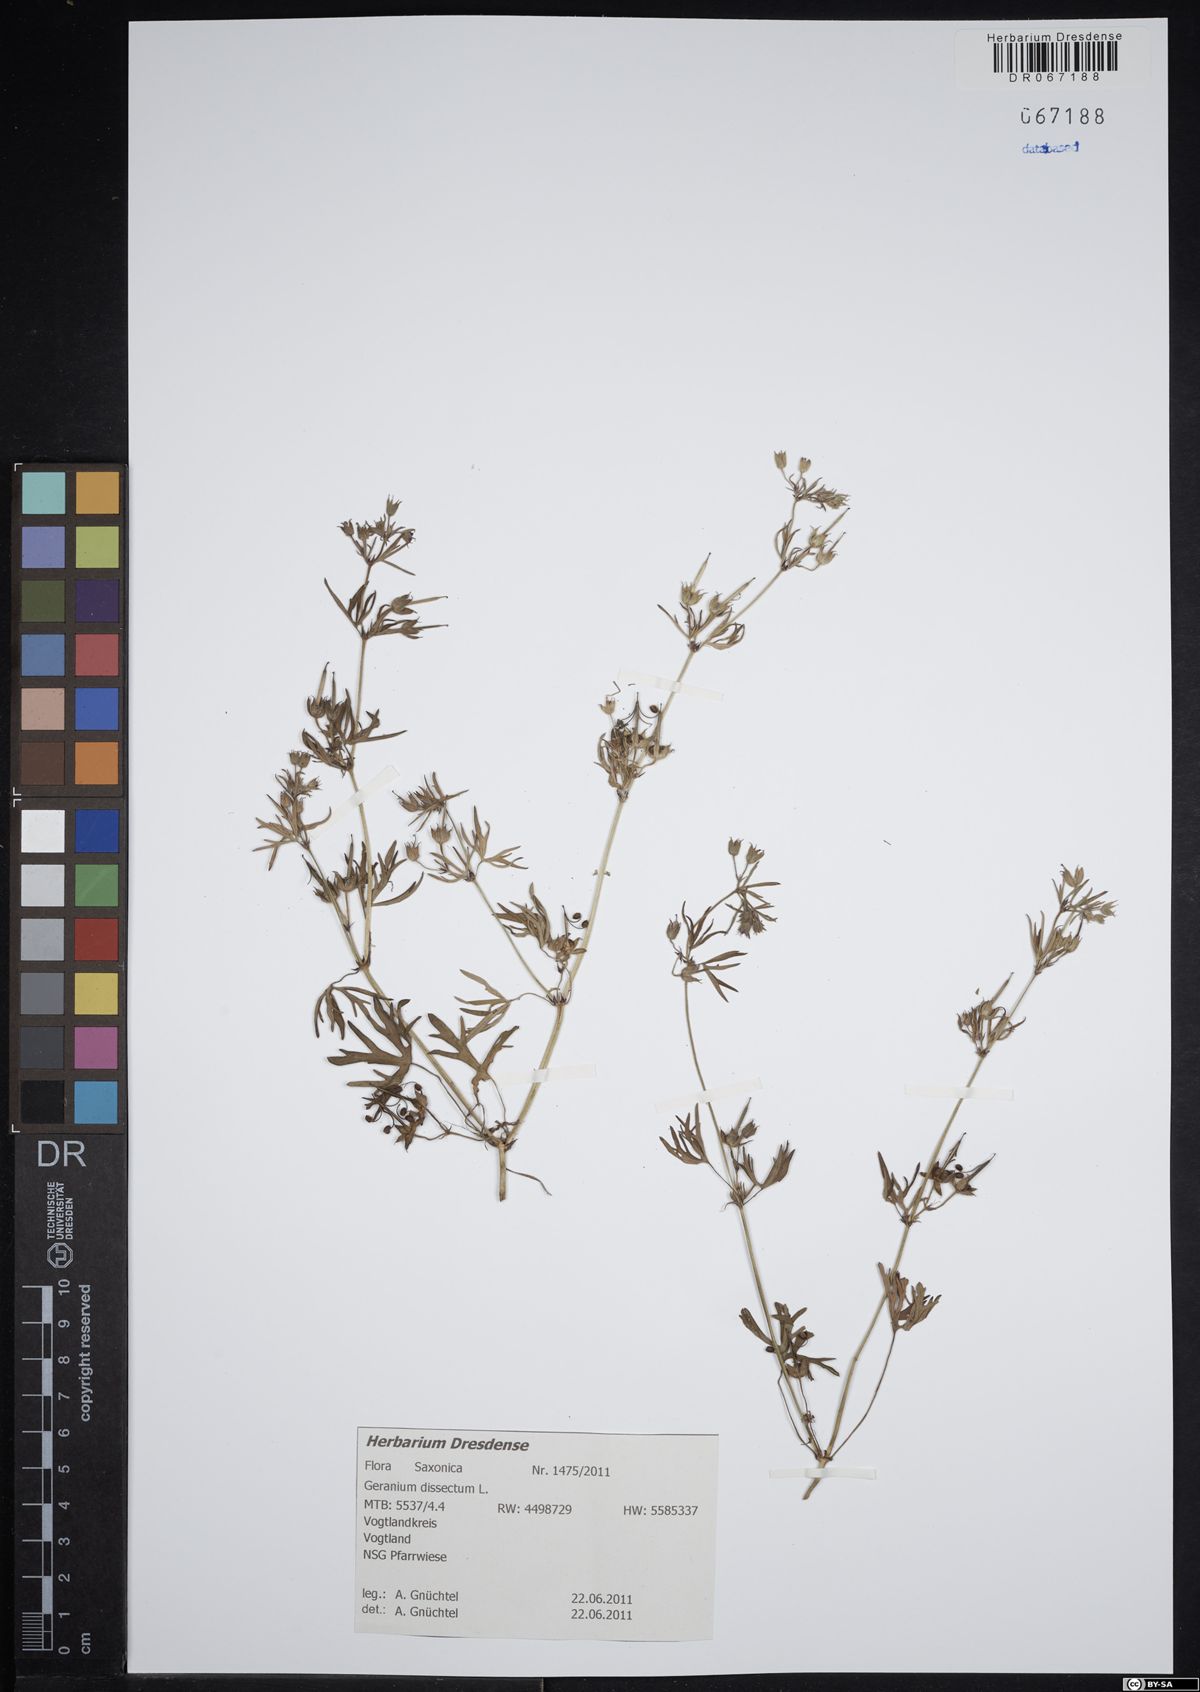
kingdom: Plantae
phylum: Tracheophyta
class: Magnoliopsida
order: Geraniales
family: Geraniaceae
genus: Geranium
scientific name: Geranium dissectum
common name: Cut-leaved crane's-bill
